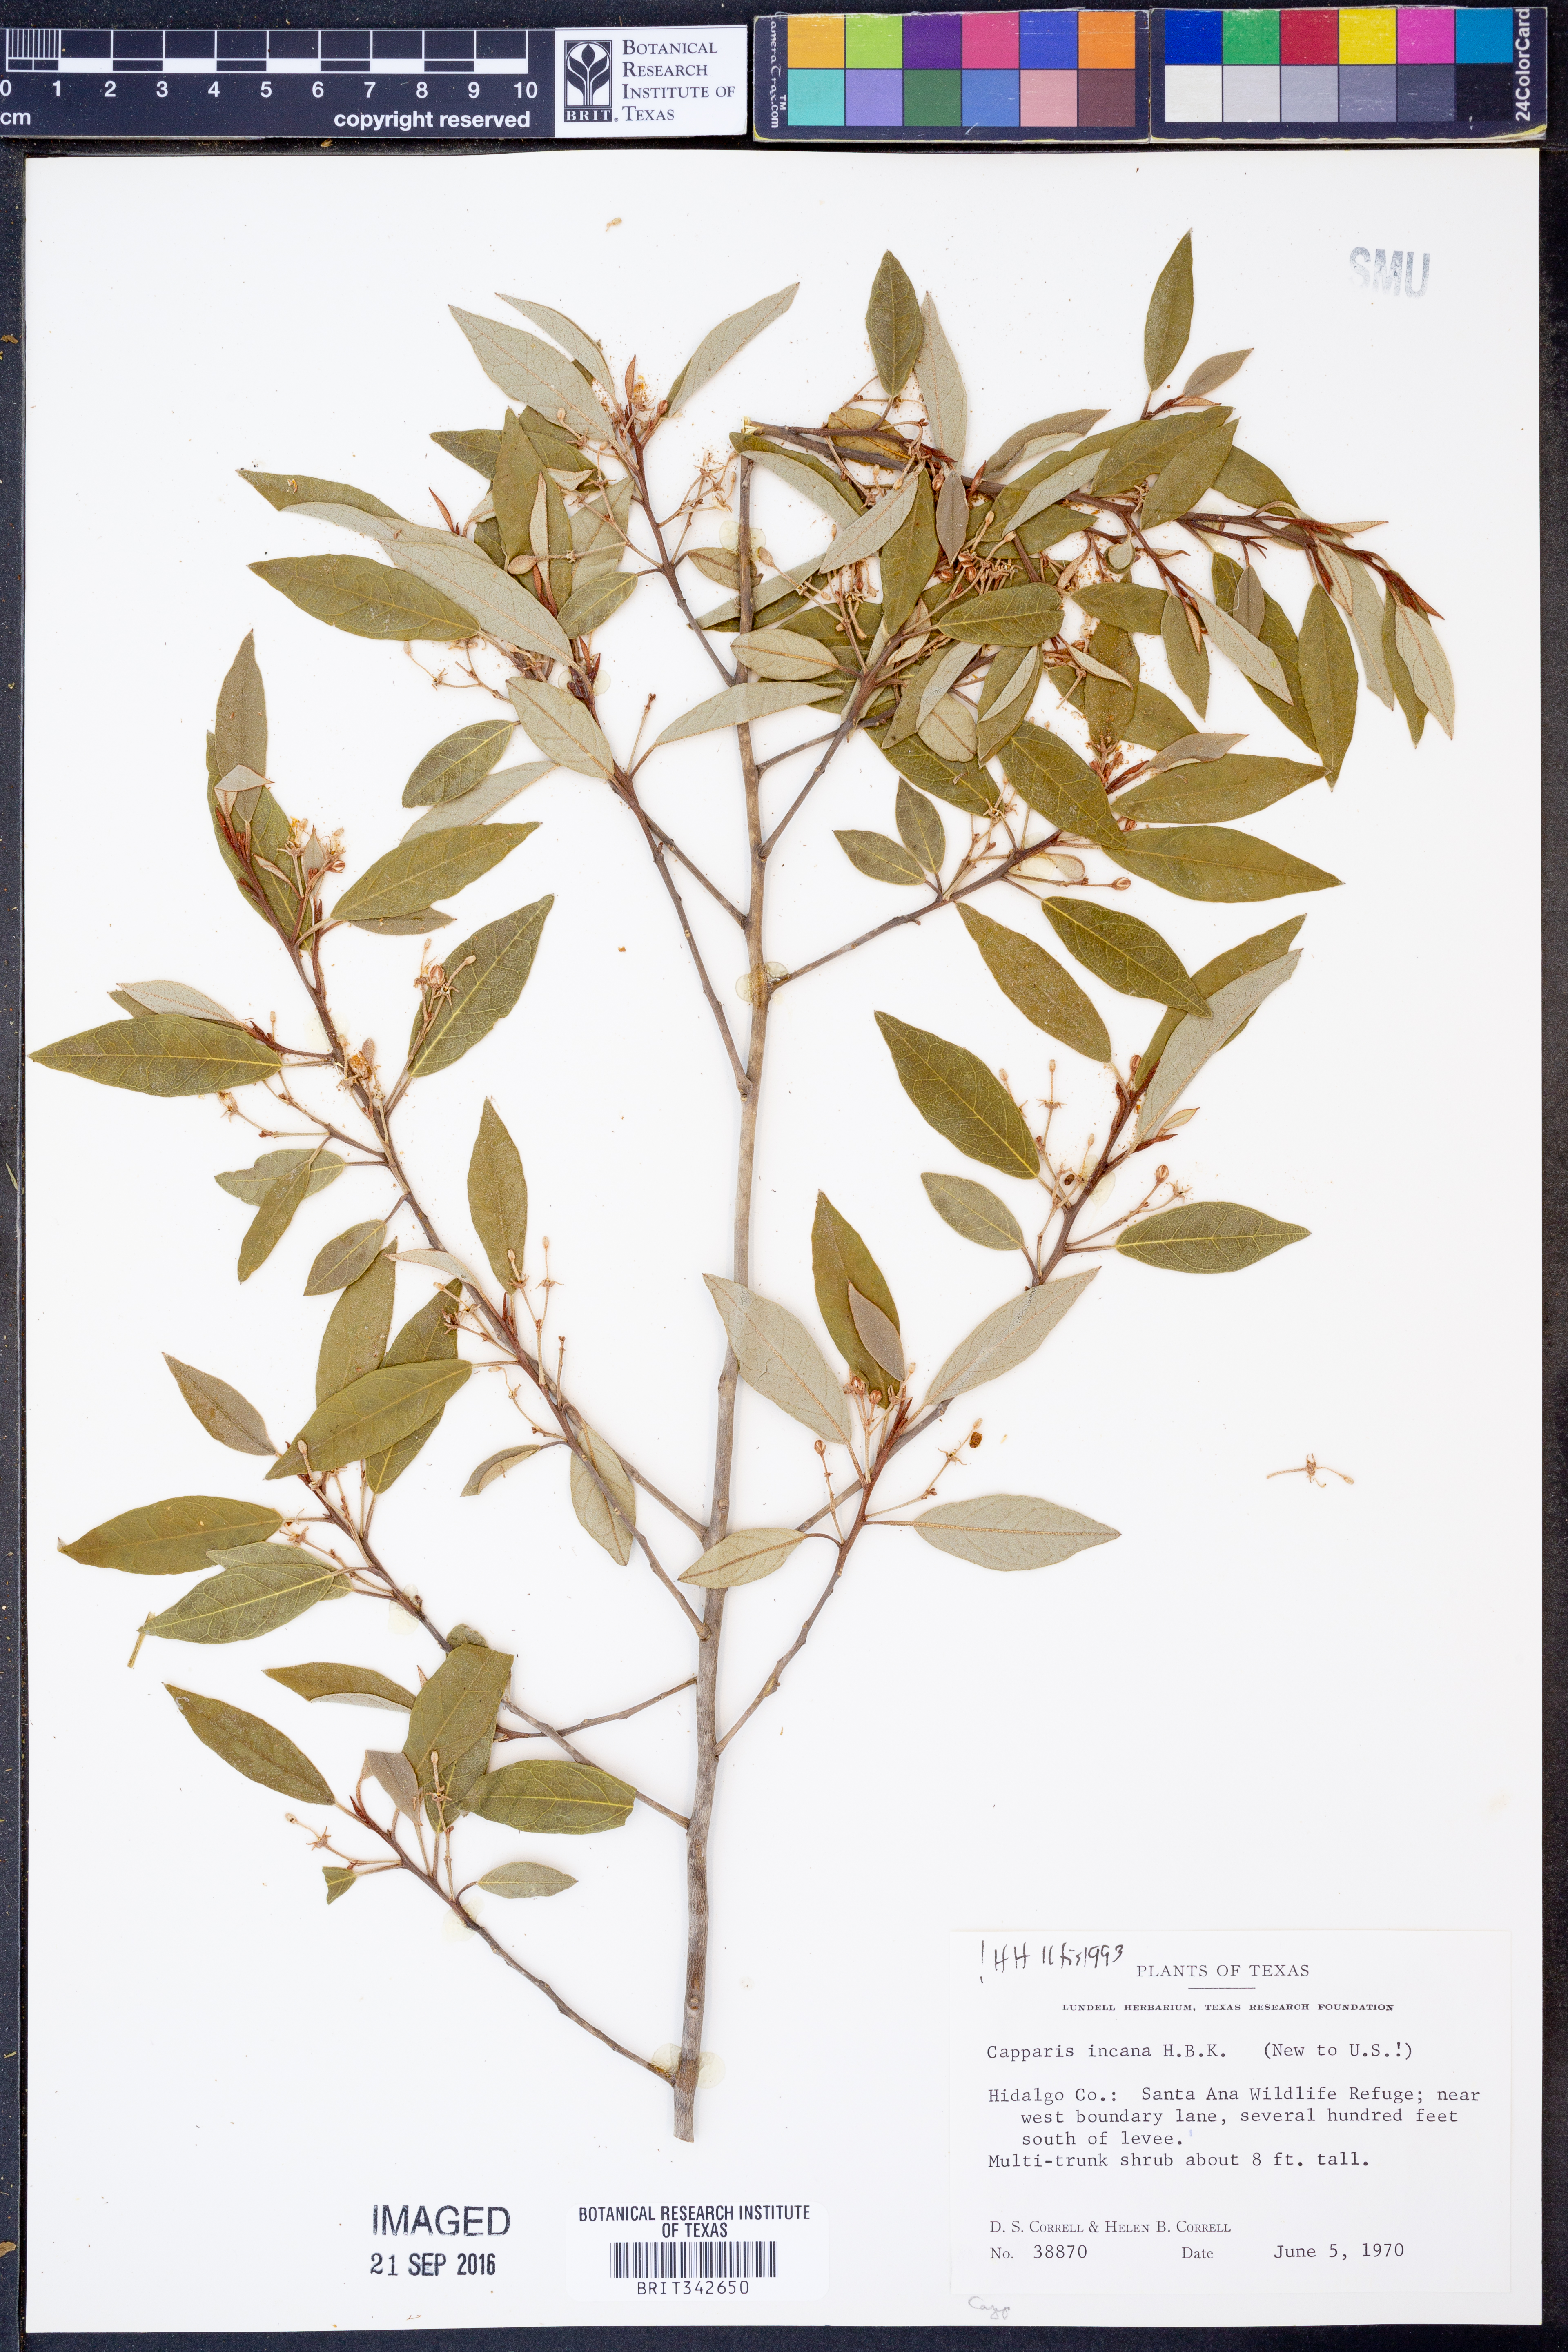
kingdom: Plantae
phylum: Tracheophyta
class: Magnoliopsida
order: Brassicales
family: Capparaceae
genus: Quadrella
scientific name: Quadrella incana
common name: Hoary caper
